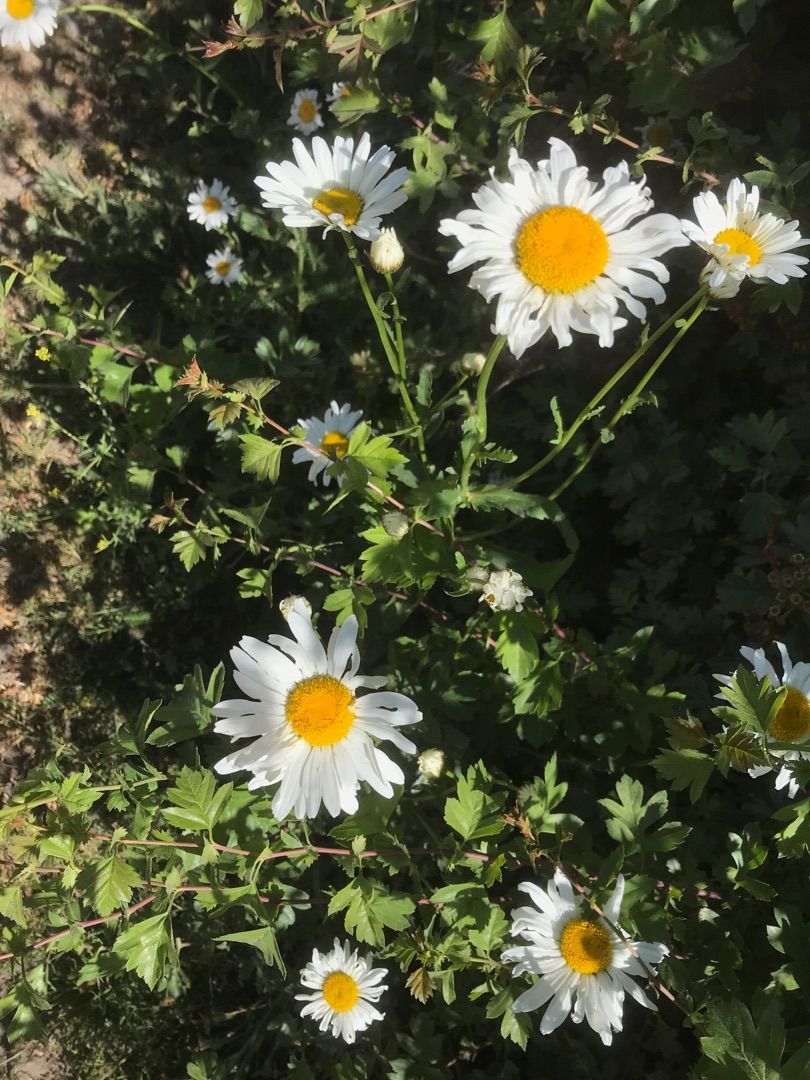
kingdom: Plantae
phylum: Tracheophyta
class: Magnoliopsida
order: Asterales
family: Asteraceae
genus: Leucanthemum
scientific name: Leucanthemum vulgare
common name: Hvid okseøje
